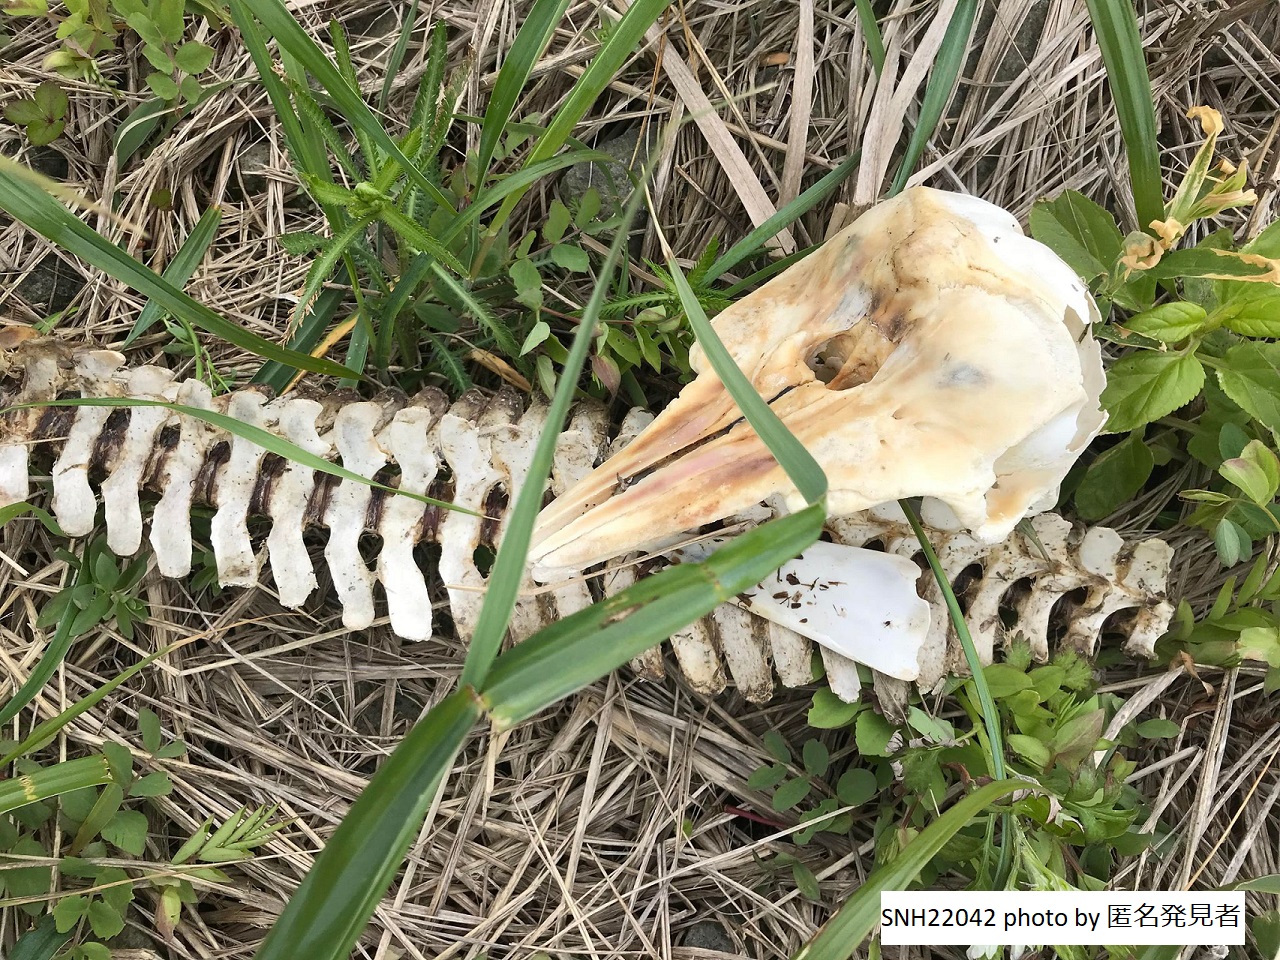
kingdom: Animalia
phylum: Chordata
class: Mammalia
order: Cetacea
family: Phocoenidae
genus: Phocoena
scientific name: Phocoena phocoena
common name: Harbour porpoise
